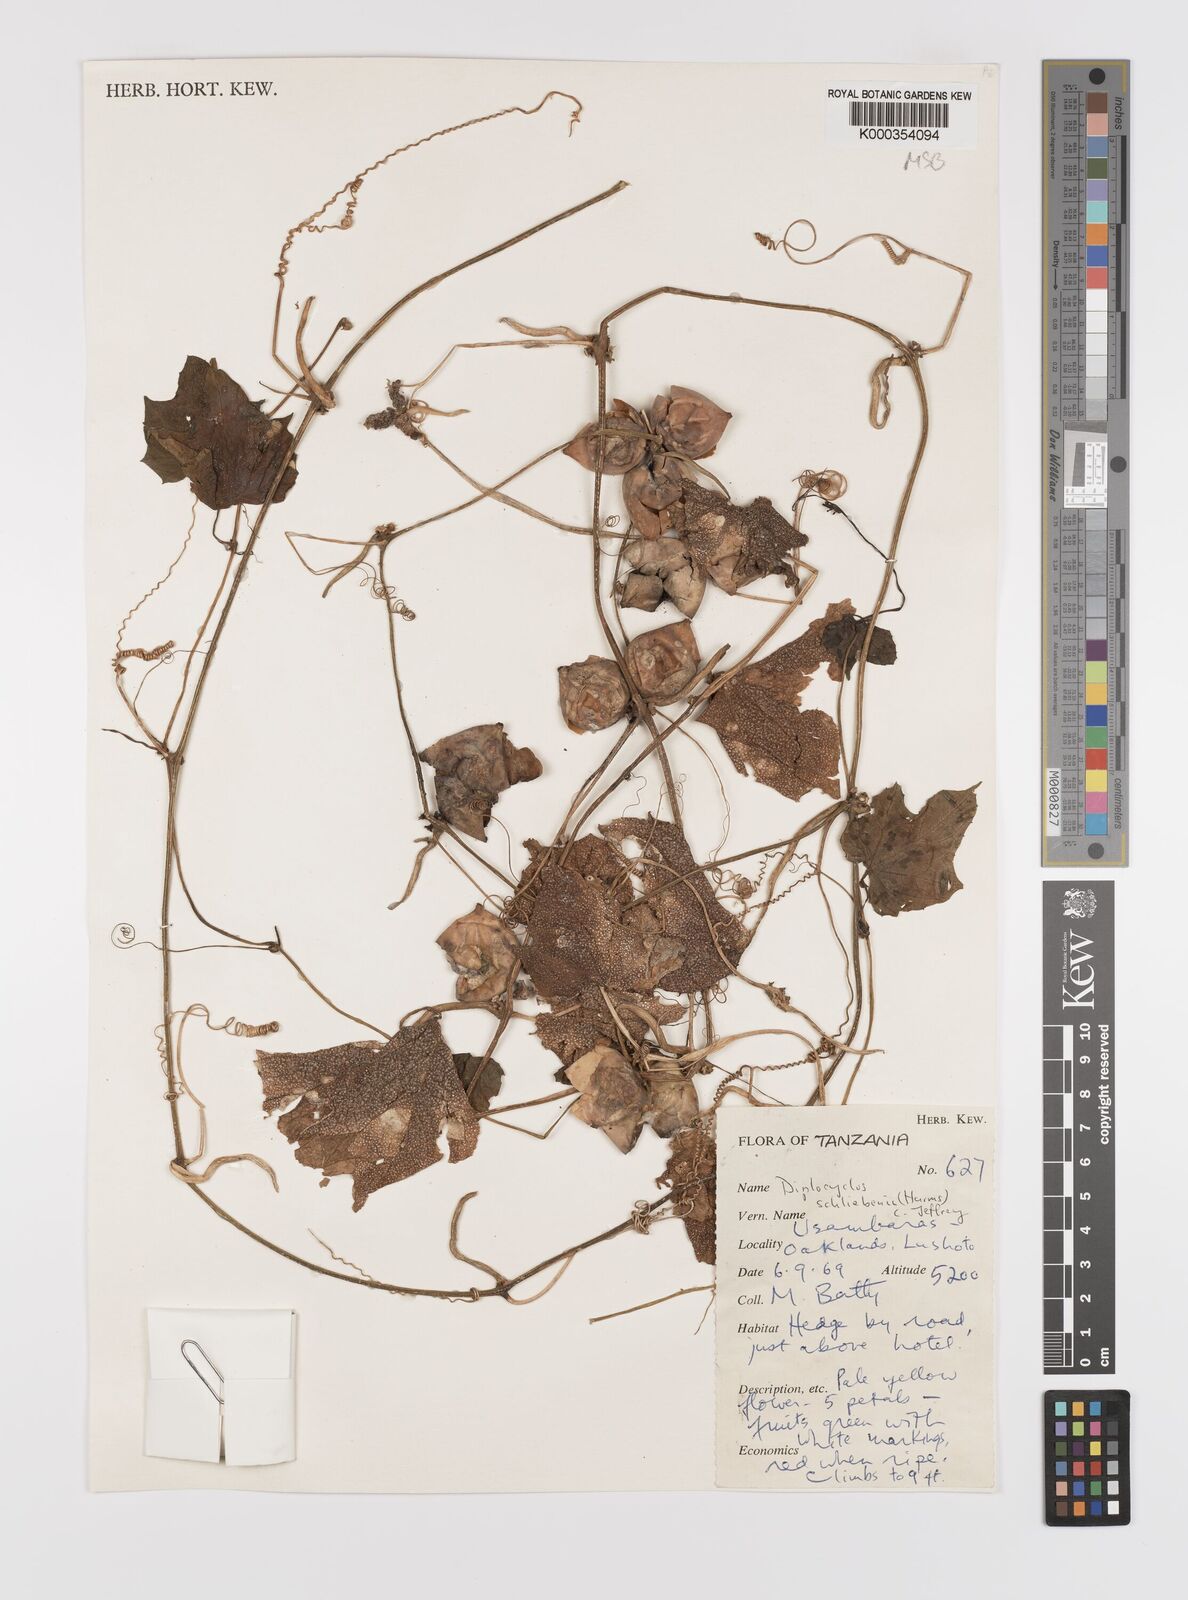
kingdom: Plantae
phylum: Tracheophyta
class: Magnoliopsida
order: Cucurbitales
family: Cucurbitaceae
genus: Diplocyclos
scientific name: Diplocyclos schliebenii
